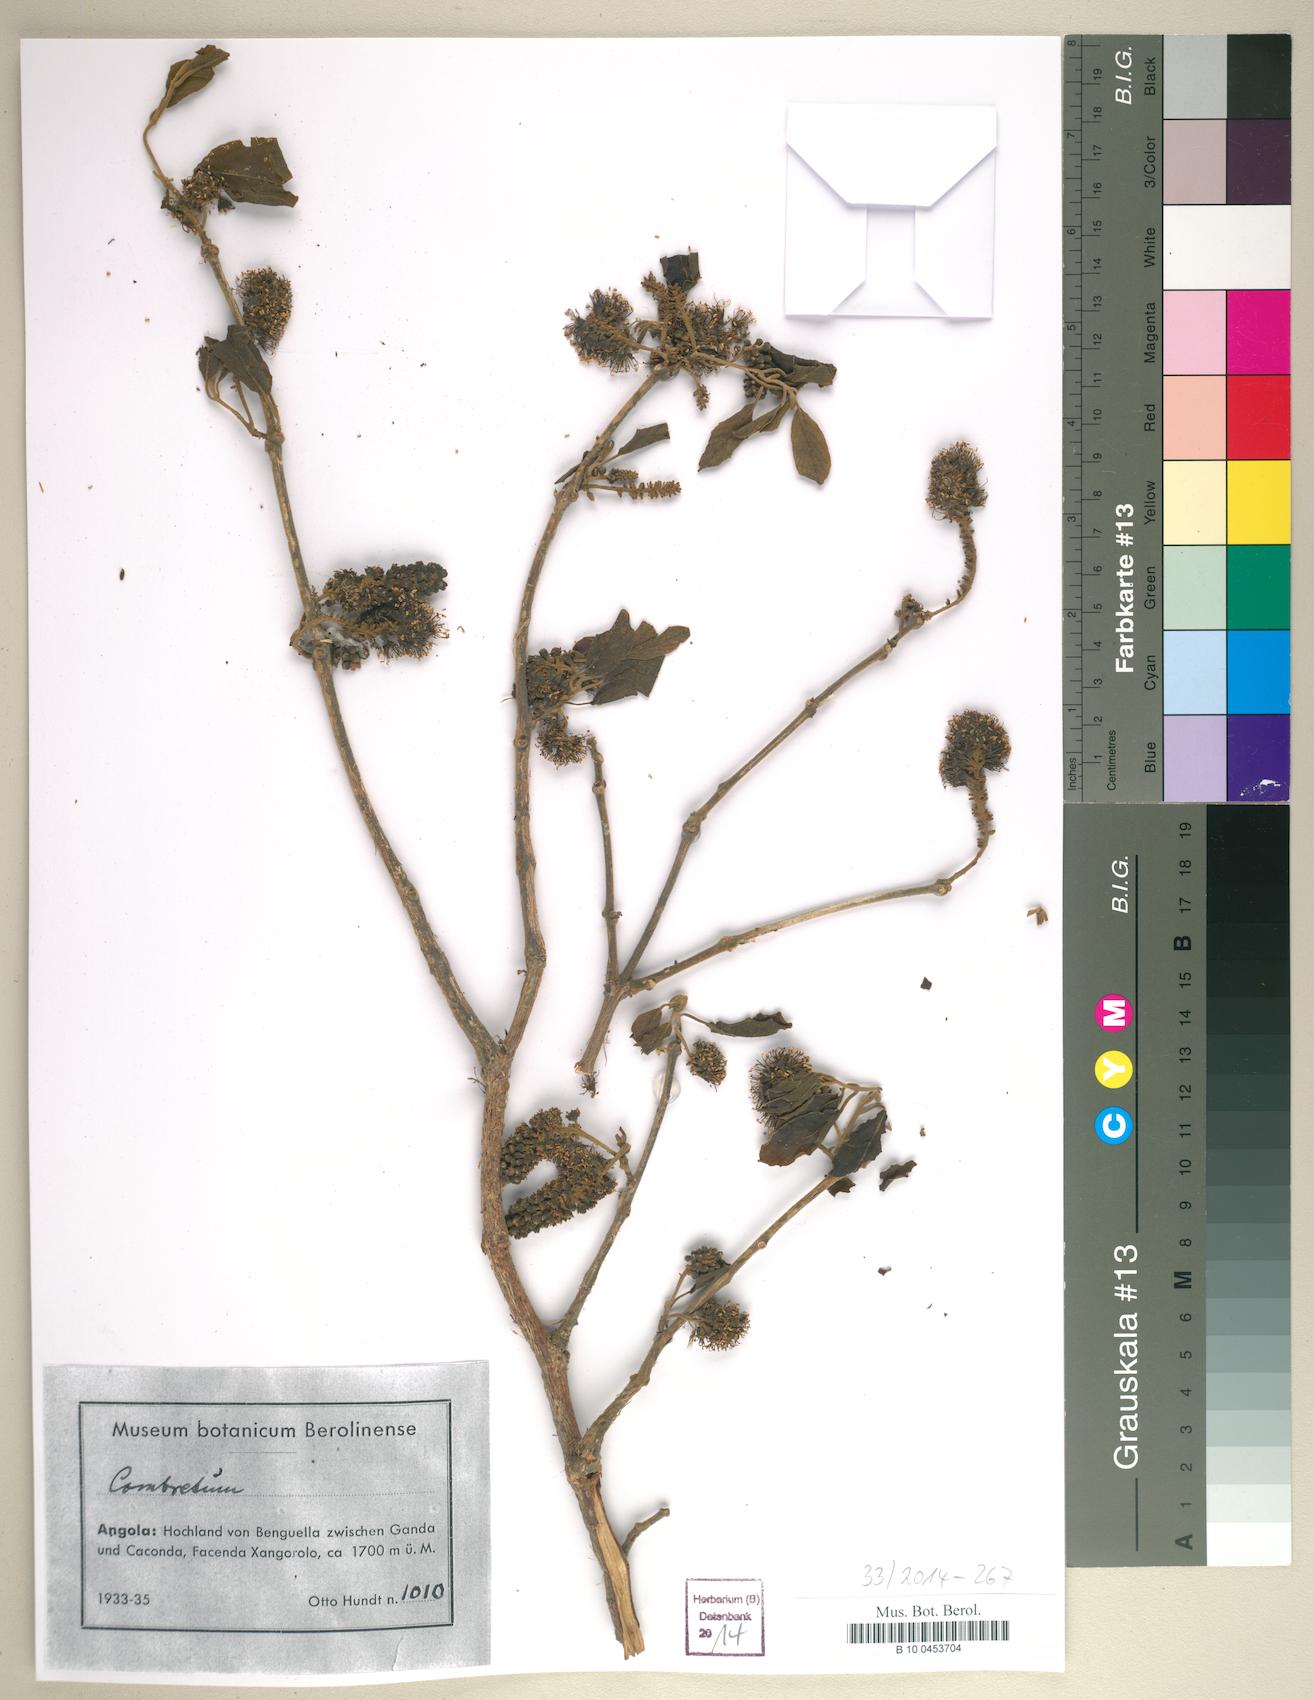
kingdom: Plantae
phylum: Tracheophyta
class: Magnoliopsida
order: Myrtales
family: Combretaceae
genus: Combretum
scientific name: Combretum
